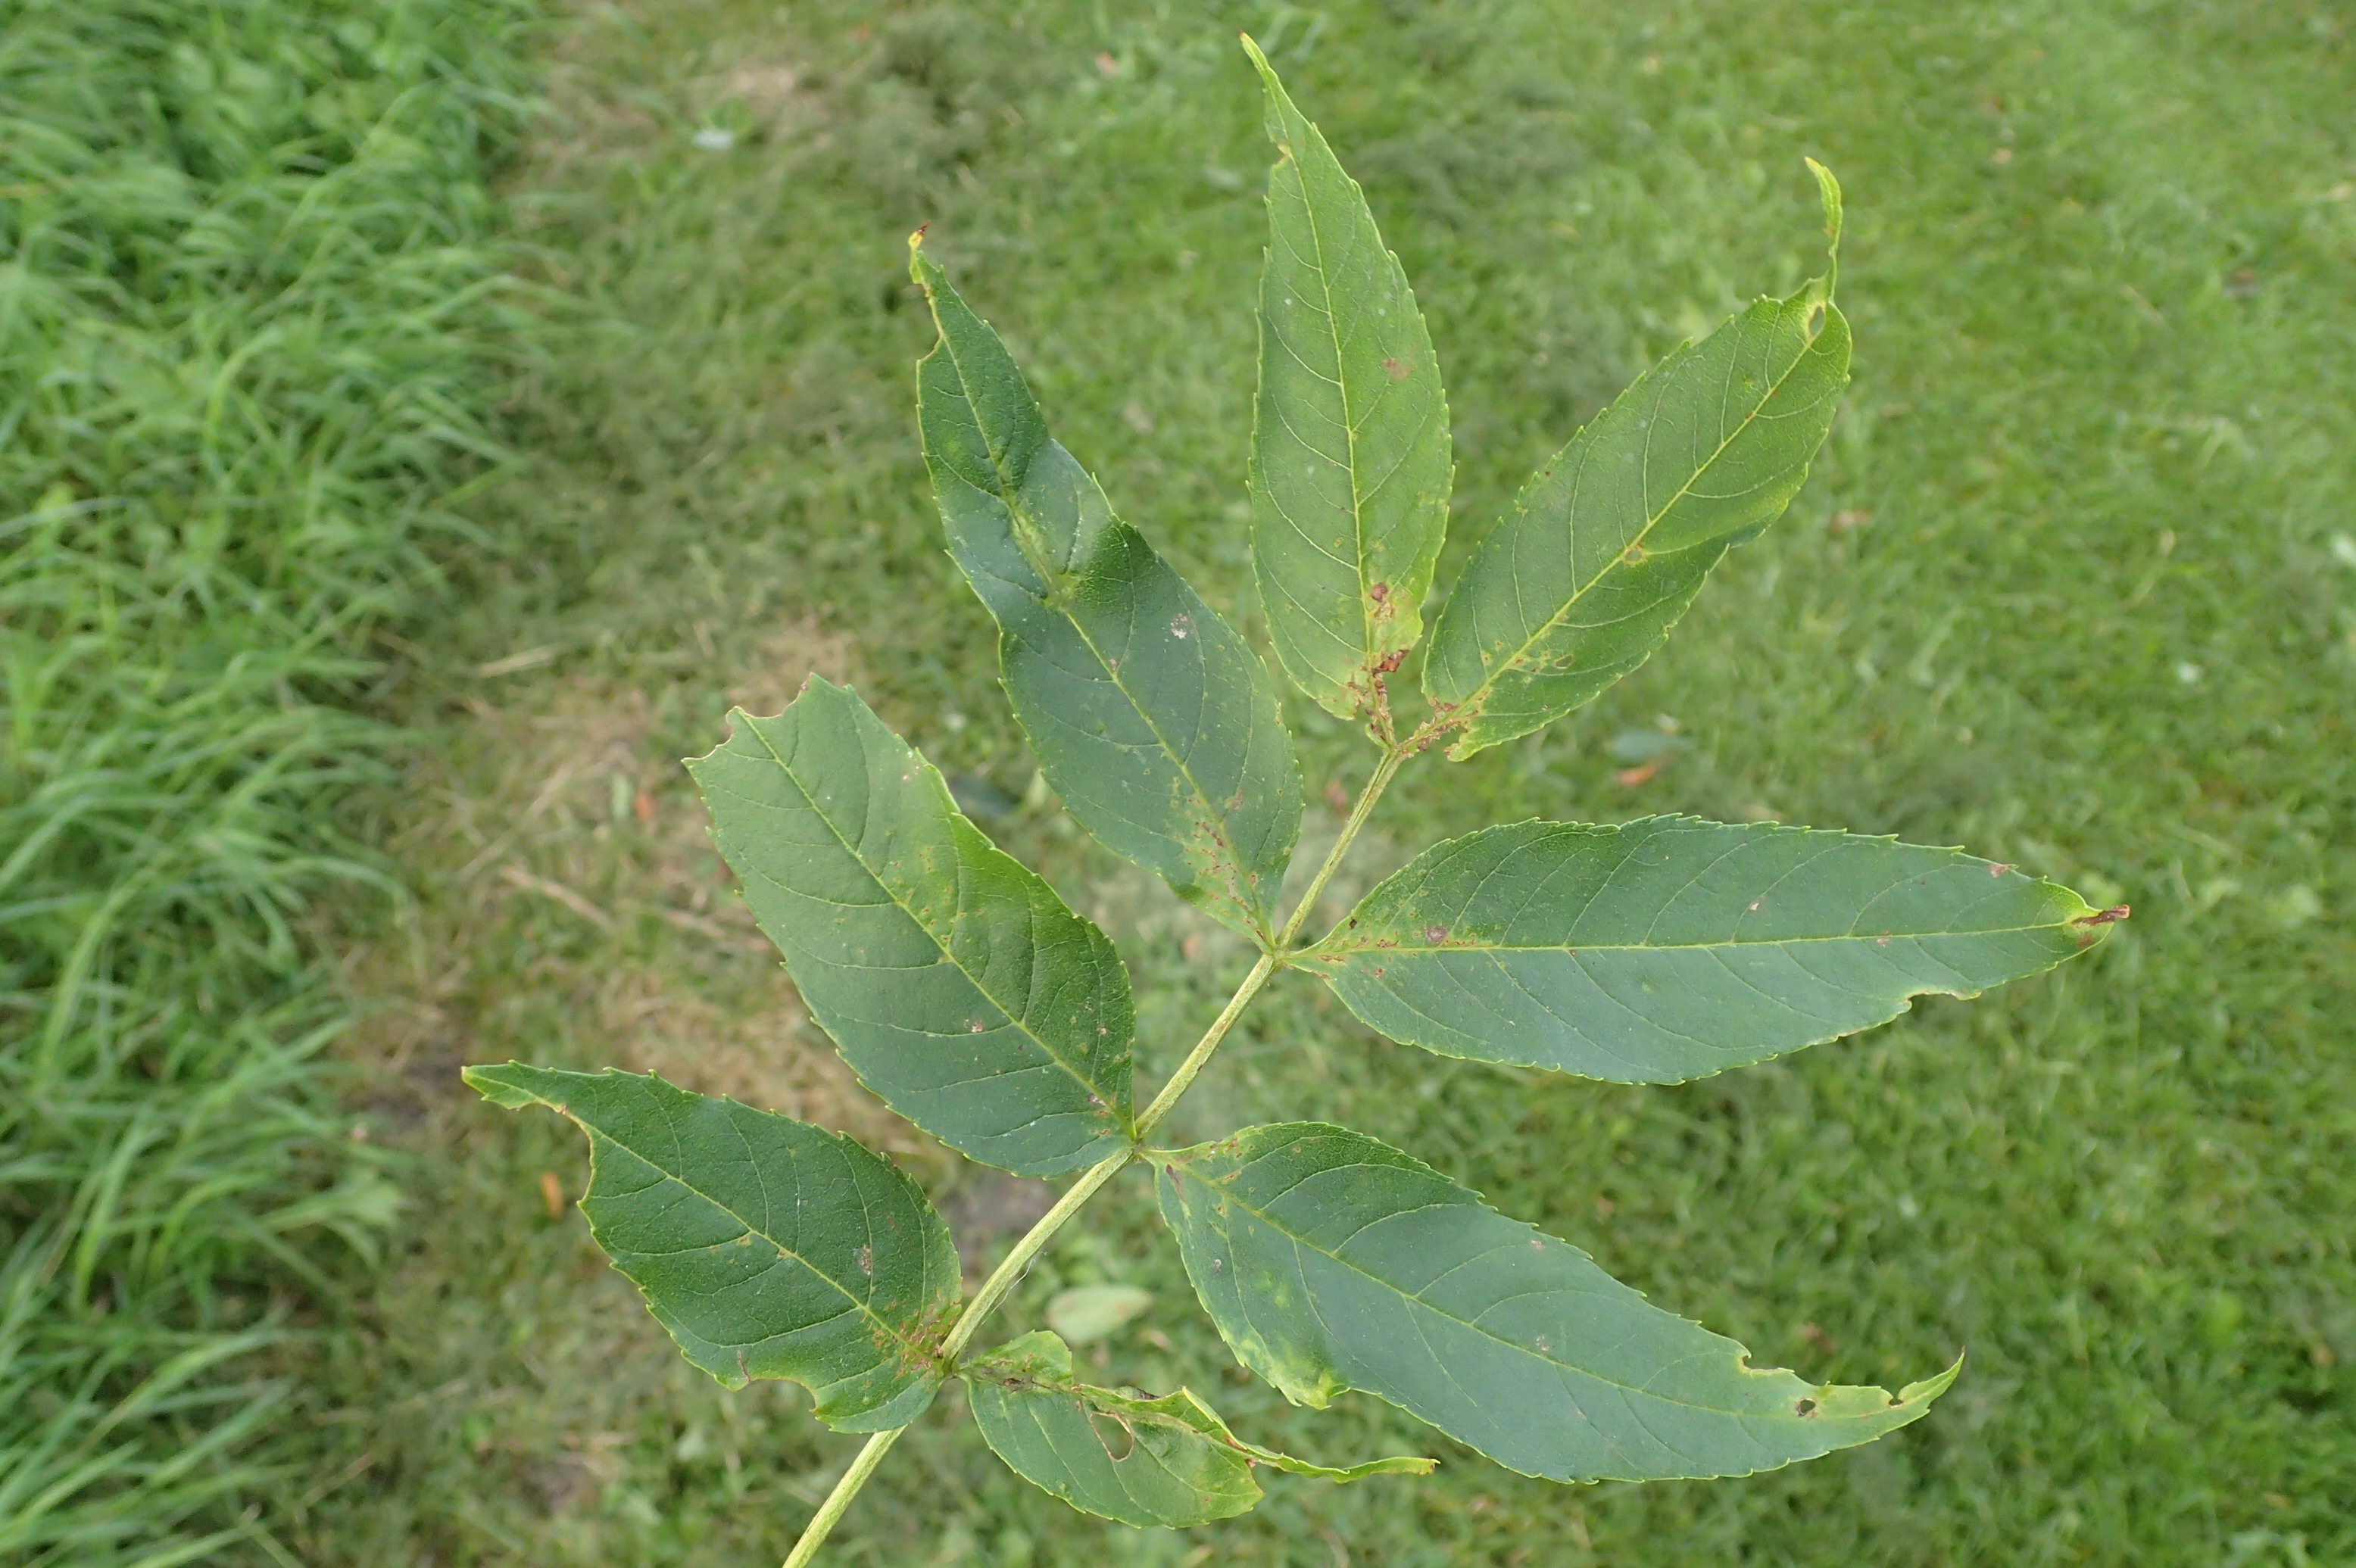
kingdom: Animalia
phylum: Arthropoda
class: Insecta
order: Diptera
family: Cecidomyiidae
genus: Dasineura
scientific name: Dasineura fraxini
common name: Orange askebladgalmyg
